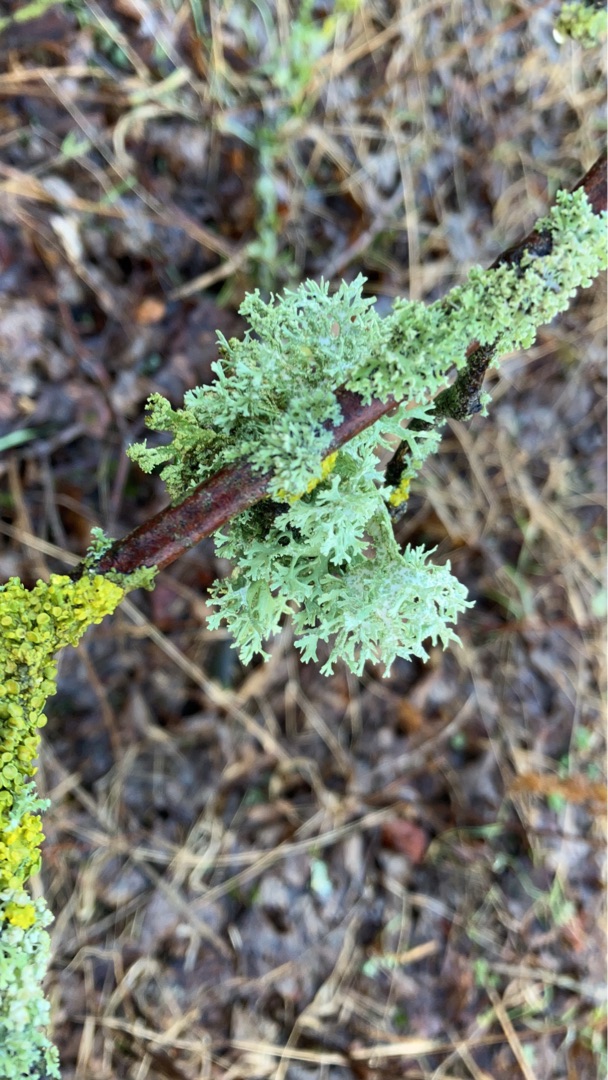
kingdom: Fungi
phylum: Ascomycota
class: Lecanoromycetes
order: Lecanorales
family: Parmeliaceae
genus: Evernia
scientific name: Evernia prunastri
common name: Almindelig slåenlav
